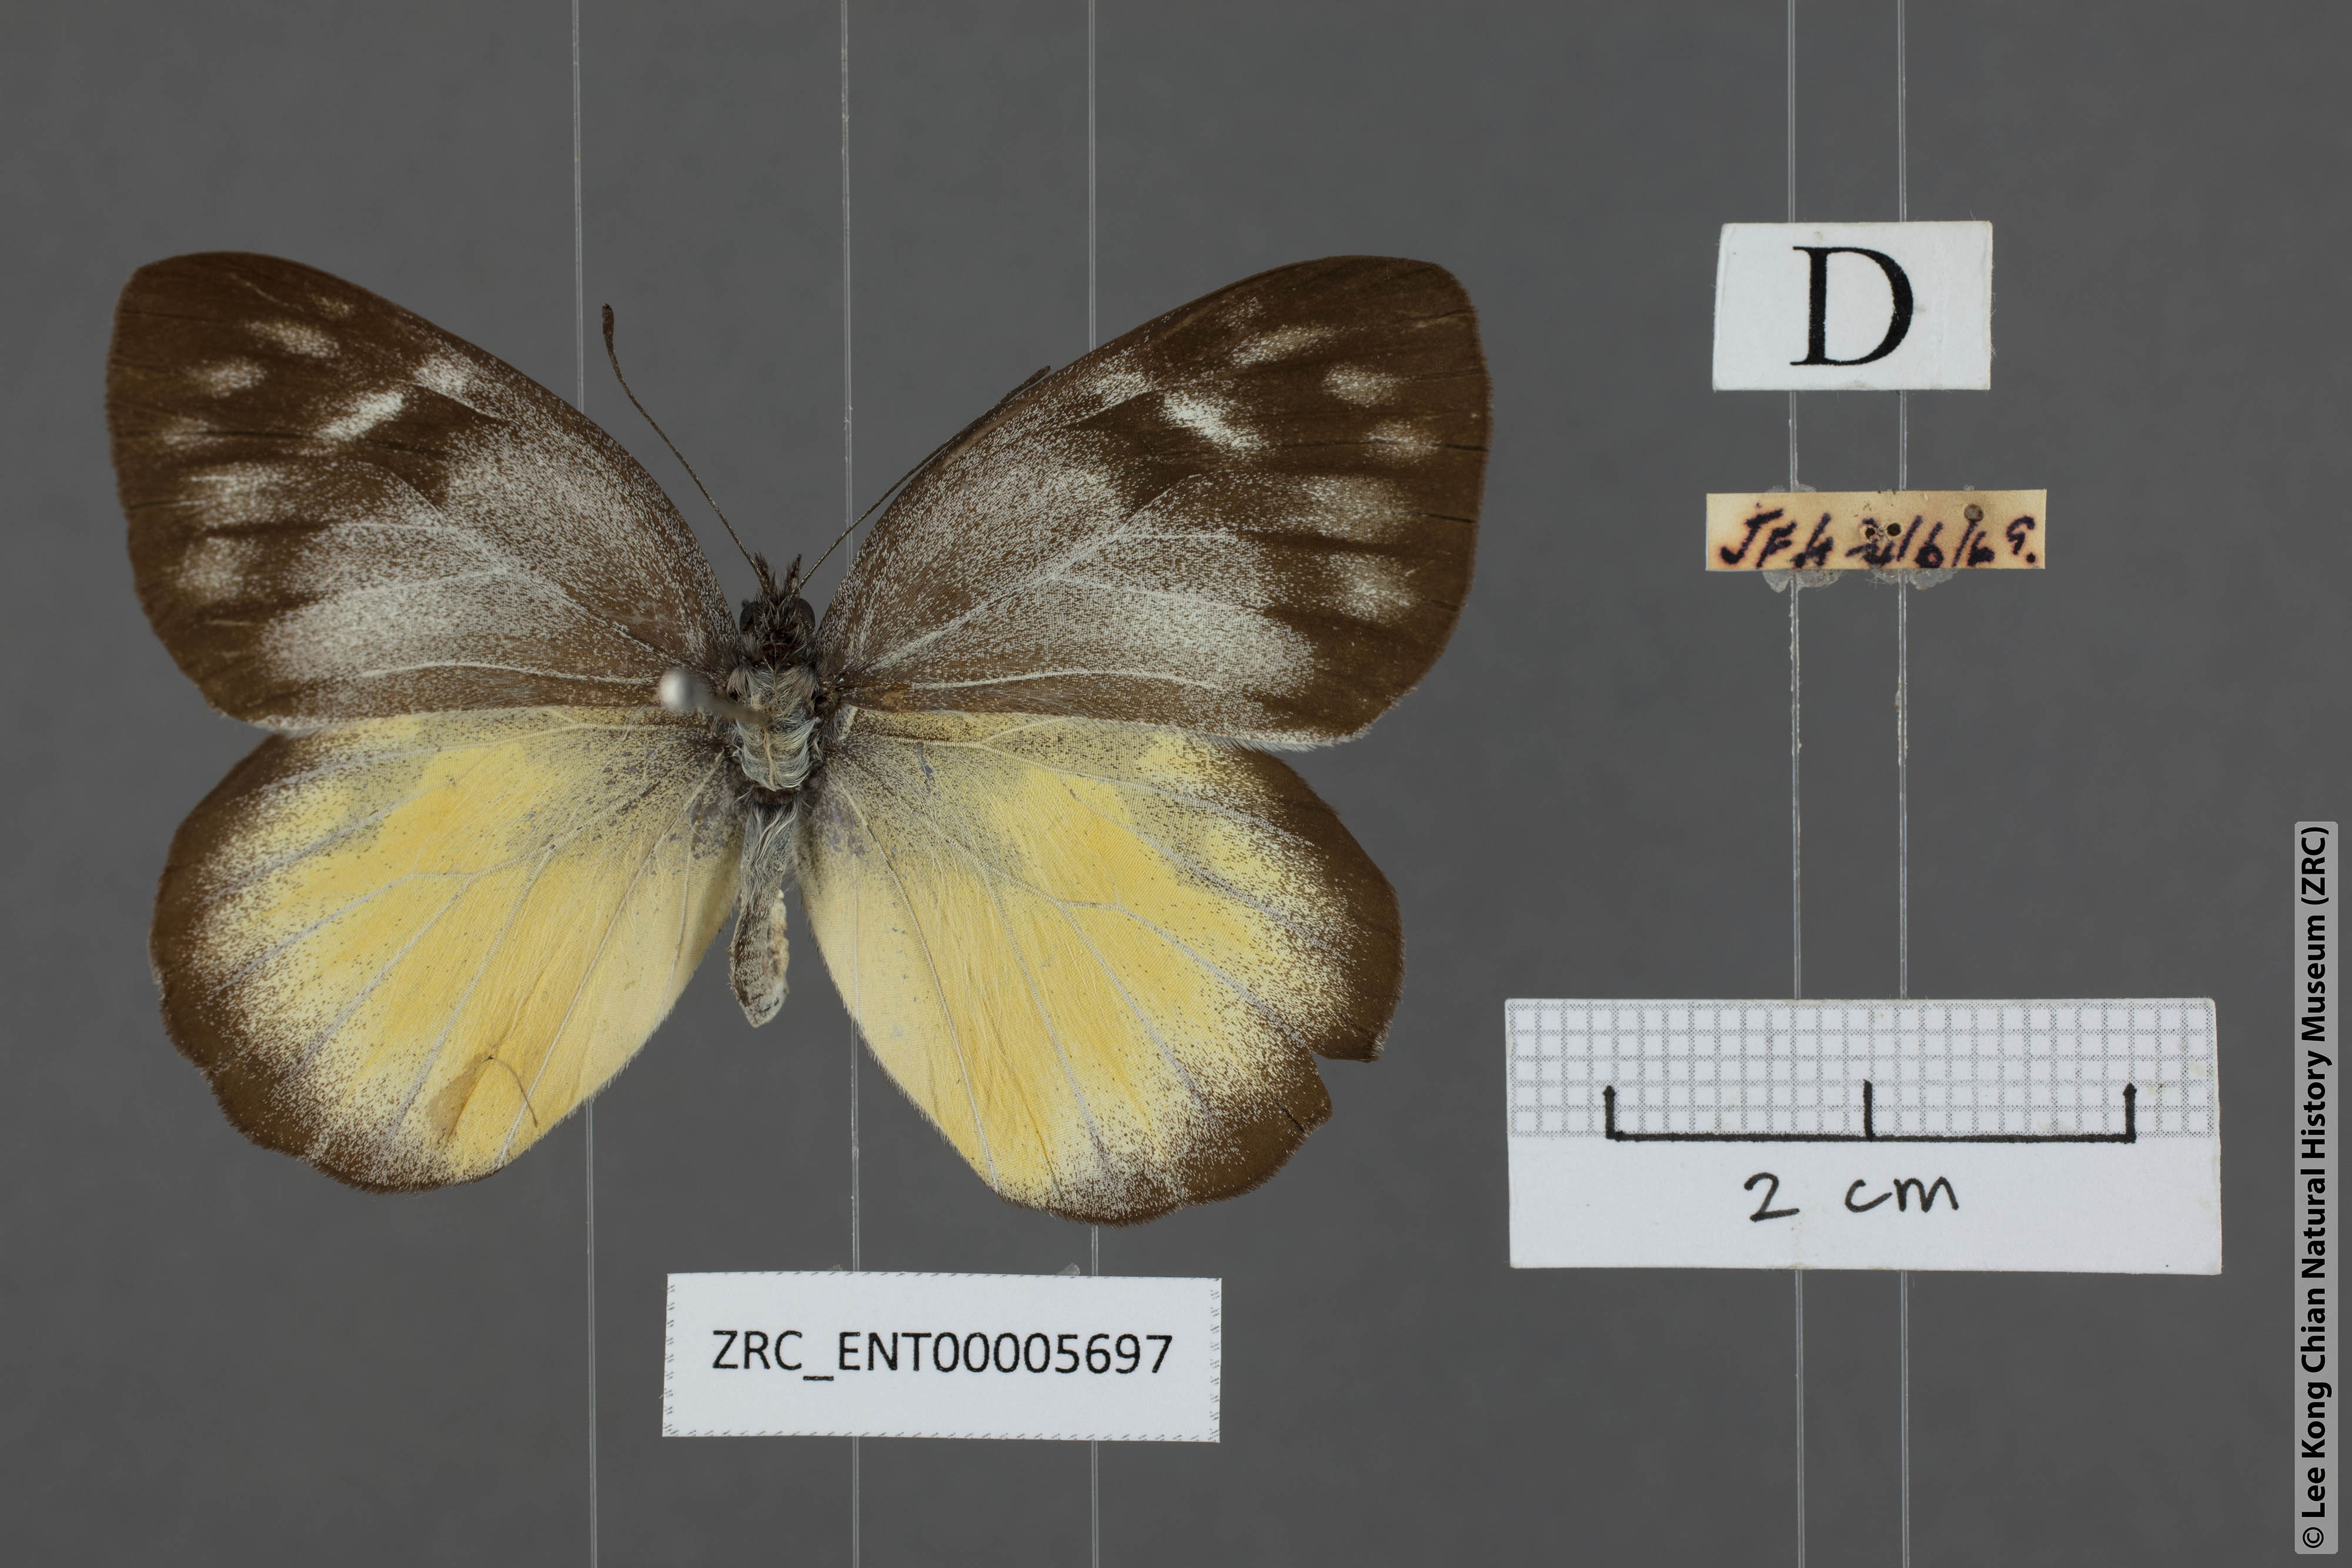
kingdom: Animalia
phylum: Arthropoda
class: Insecta
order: Lepidoptera
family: Pieridae
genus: Delias
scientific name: Delias georgina
